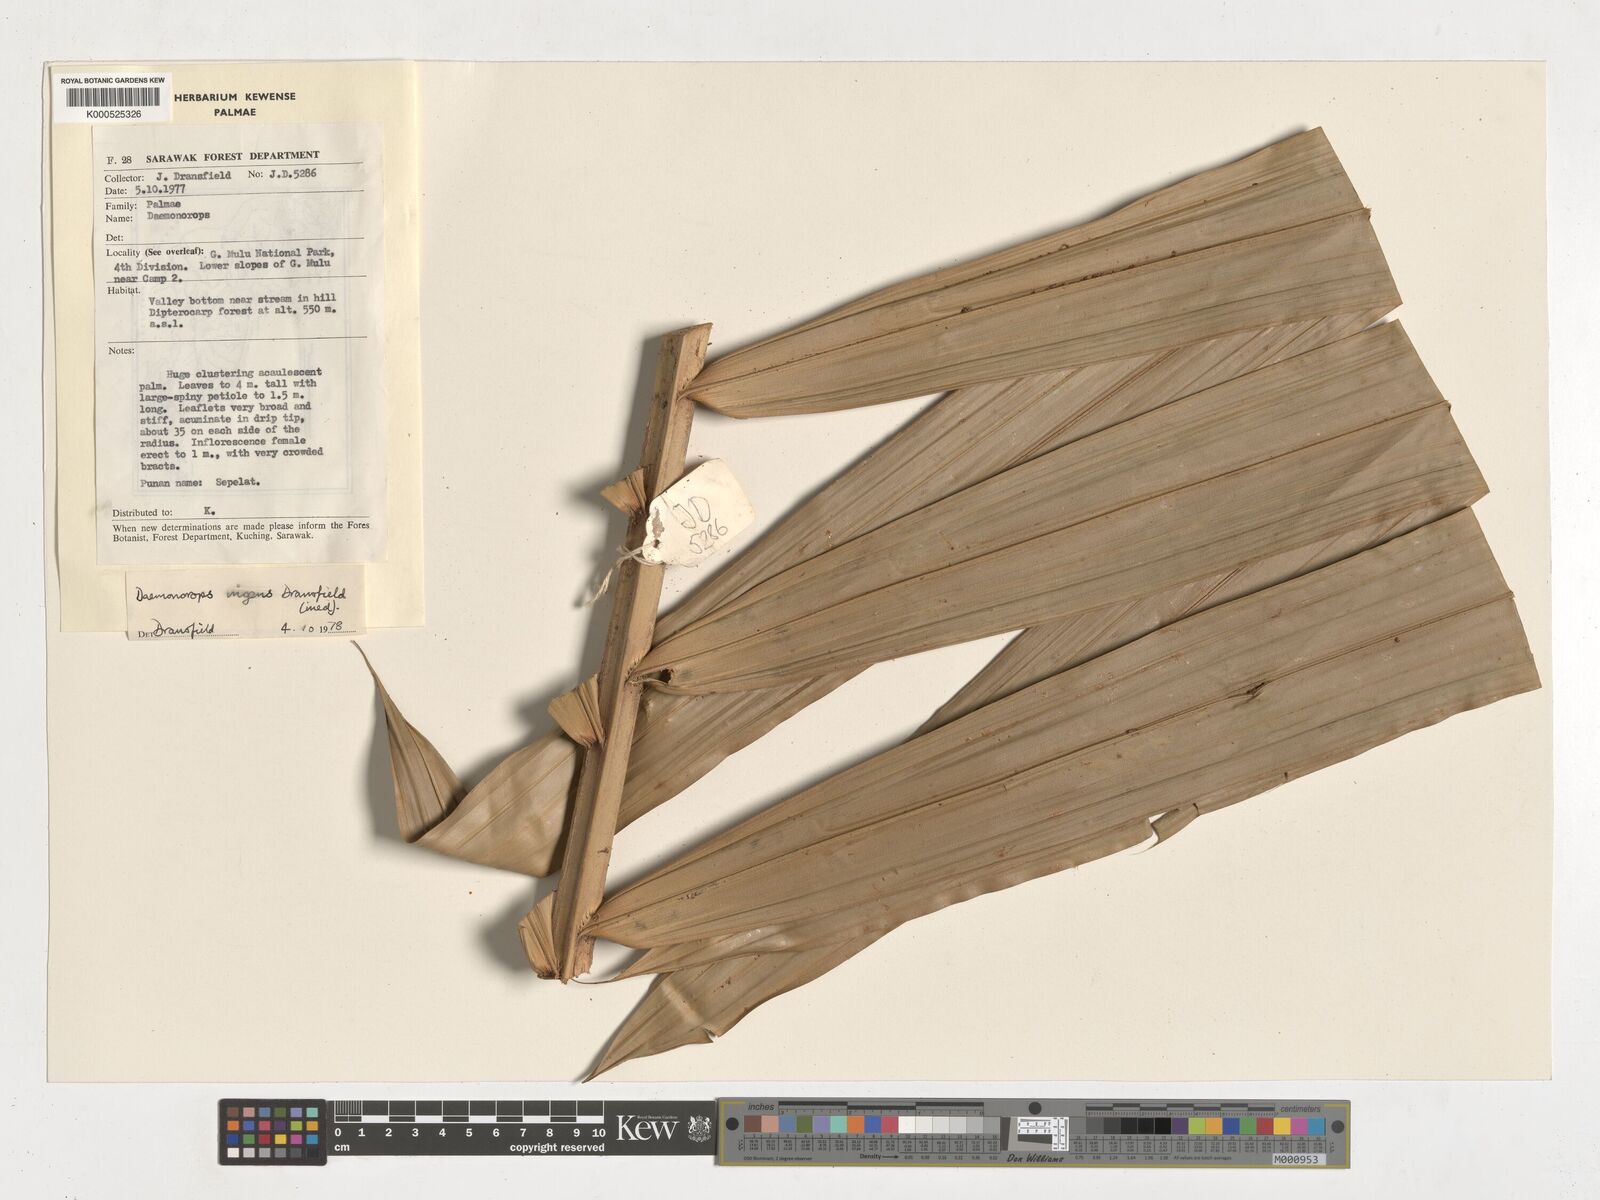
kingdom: Plantae
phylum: Tracheophyta
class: Liliopsida
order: Arecales
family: Arecaceae
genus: Calamus
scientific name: Calamus ingens
